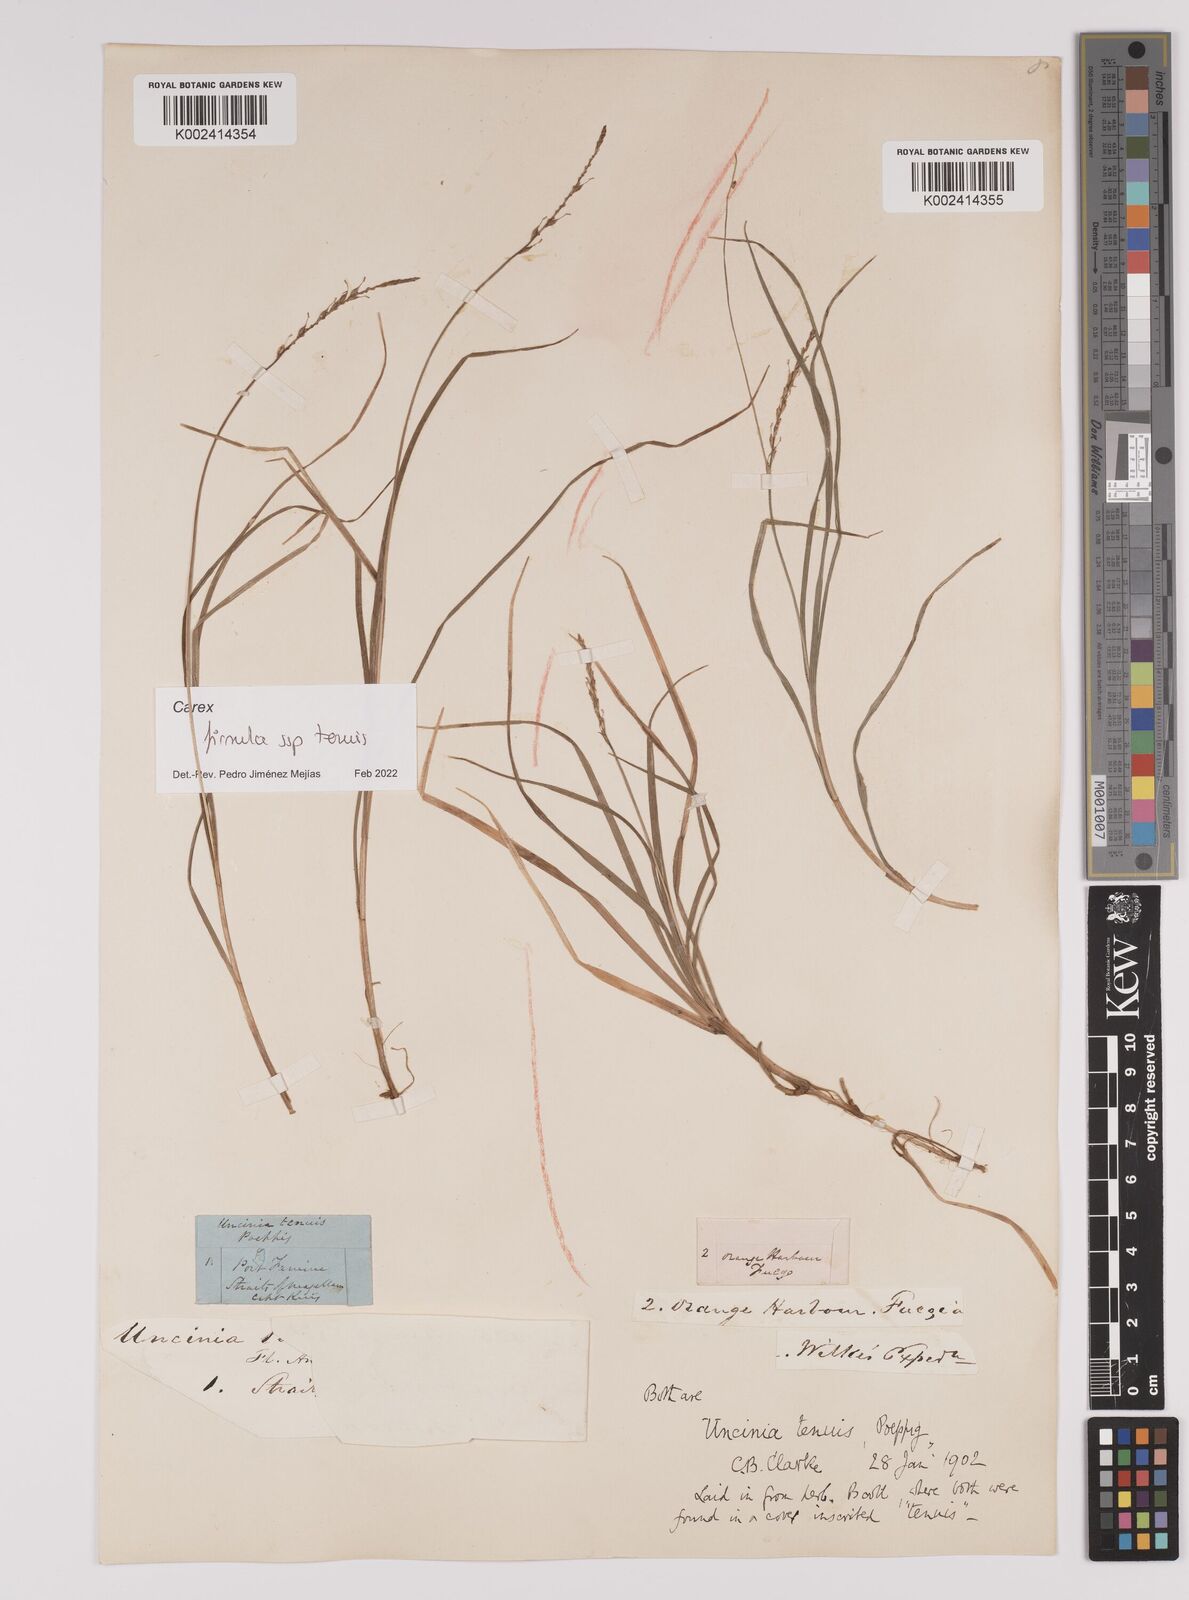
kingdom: Plantae
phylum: Tracheophyta
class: Liliopsida
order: Poales
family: Cyperaceae
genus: Carex
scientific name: Carex firmula
